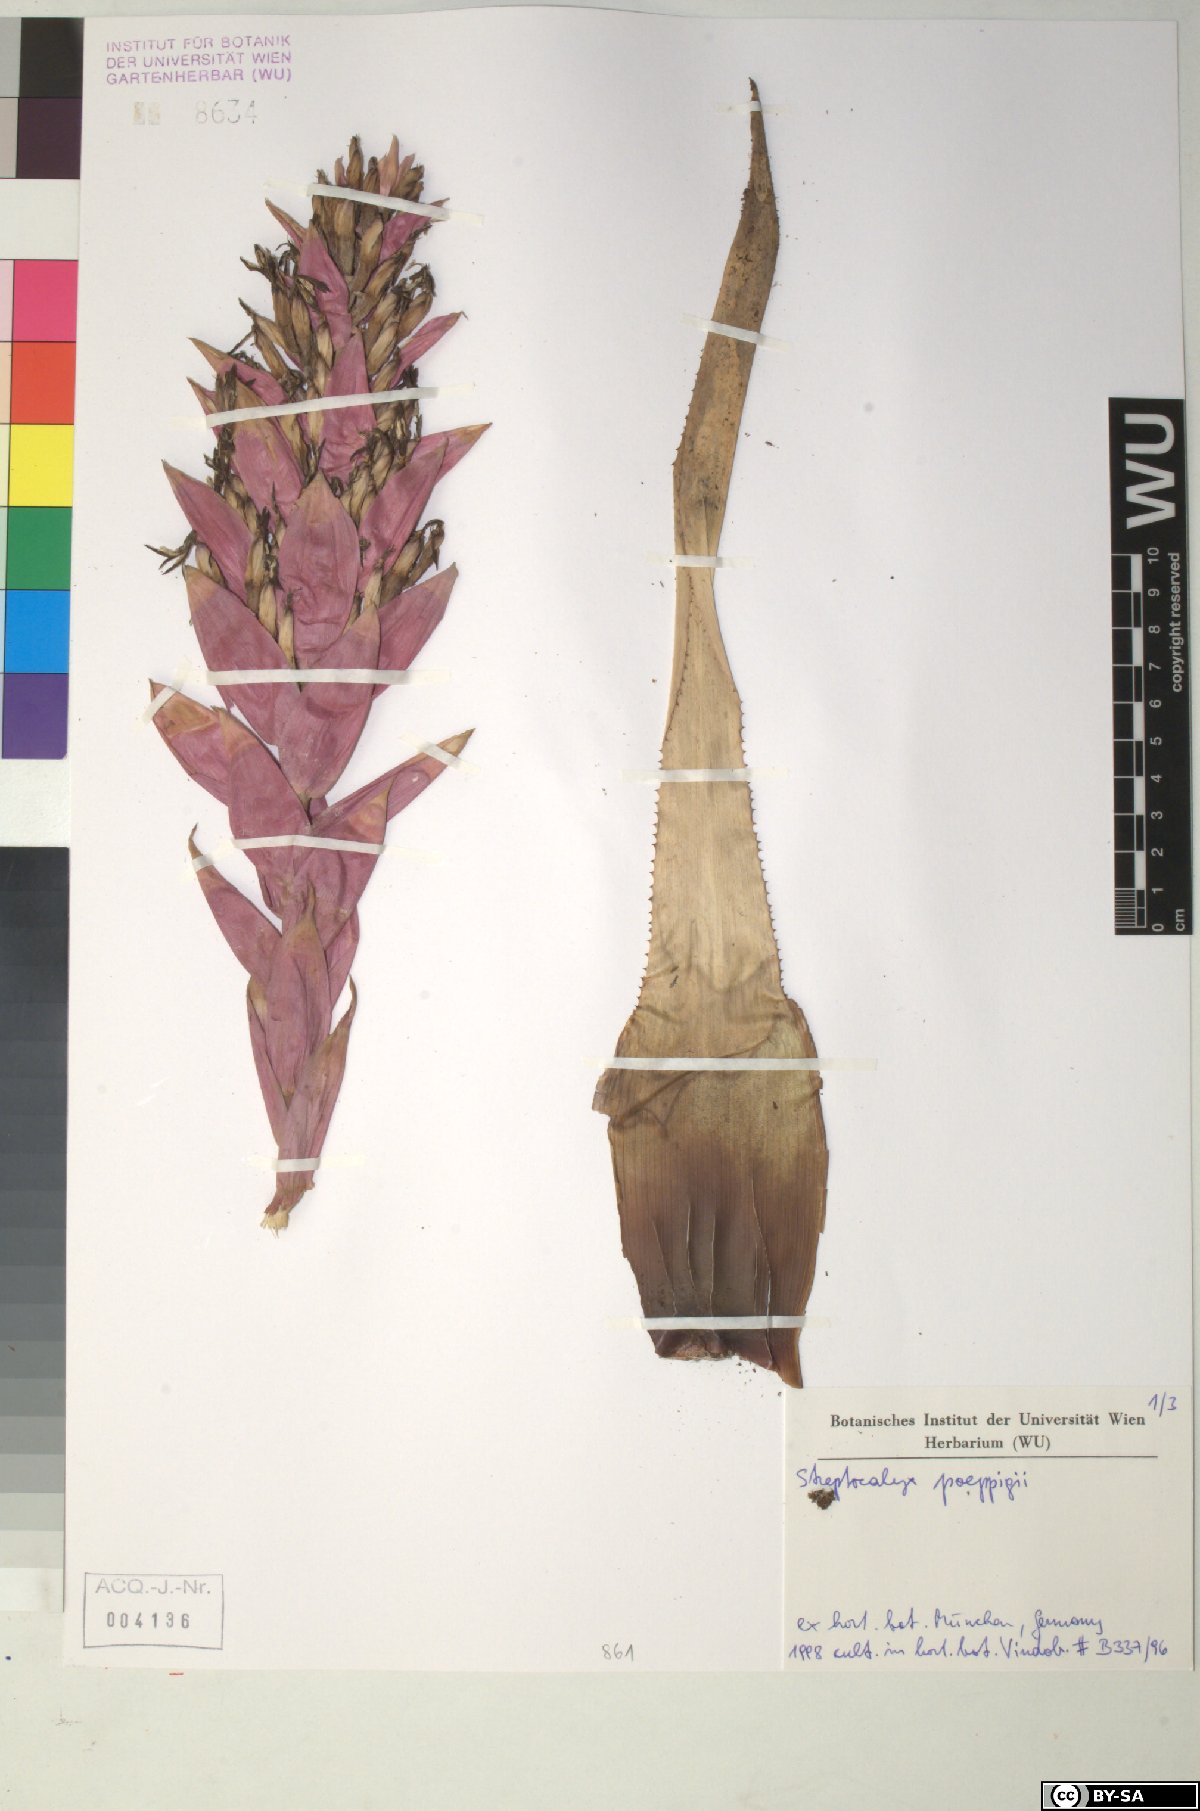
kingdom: Plantae
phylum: Tracheophyta
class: Liliopsida
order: Poales
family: Bromeliaceae
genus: Aechmea
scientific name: Aechmea vallerandii
